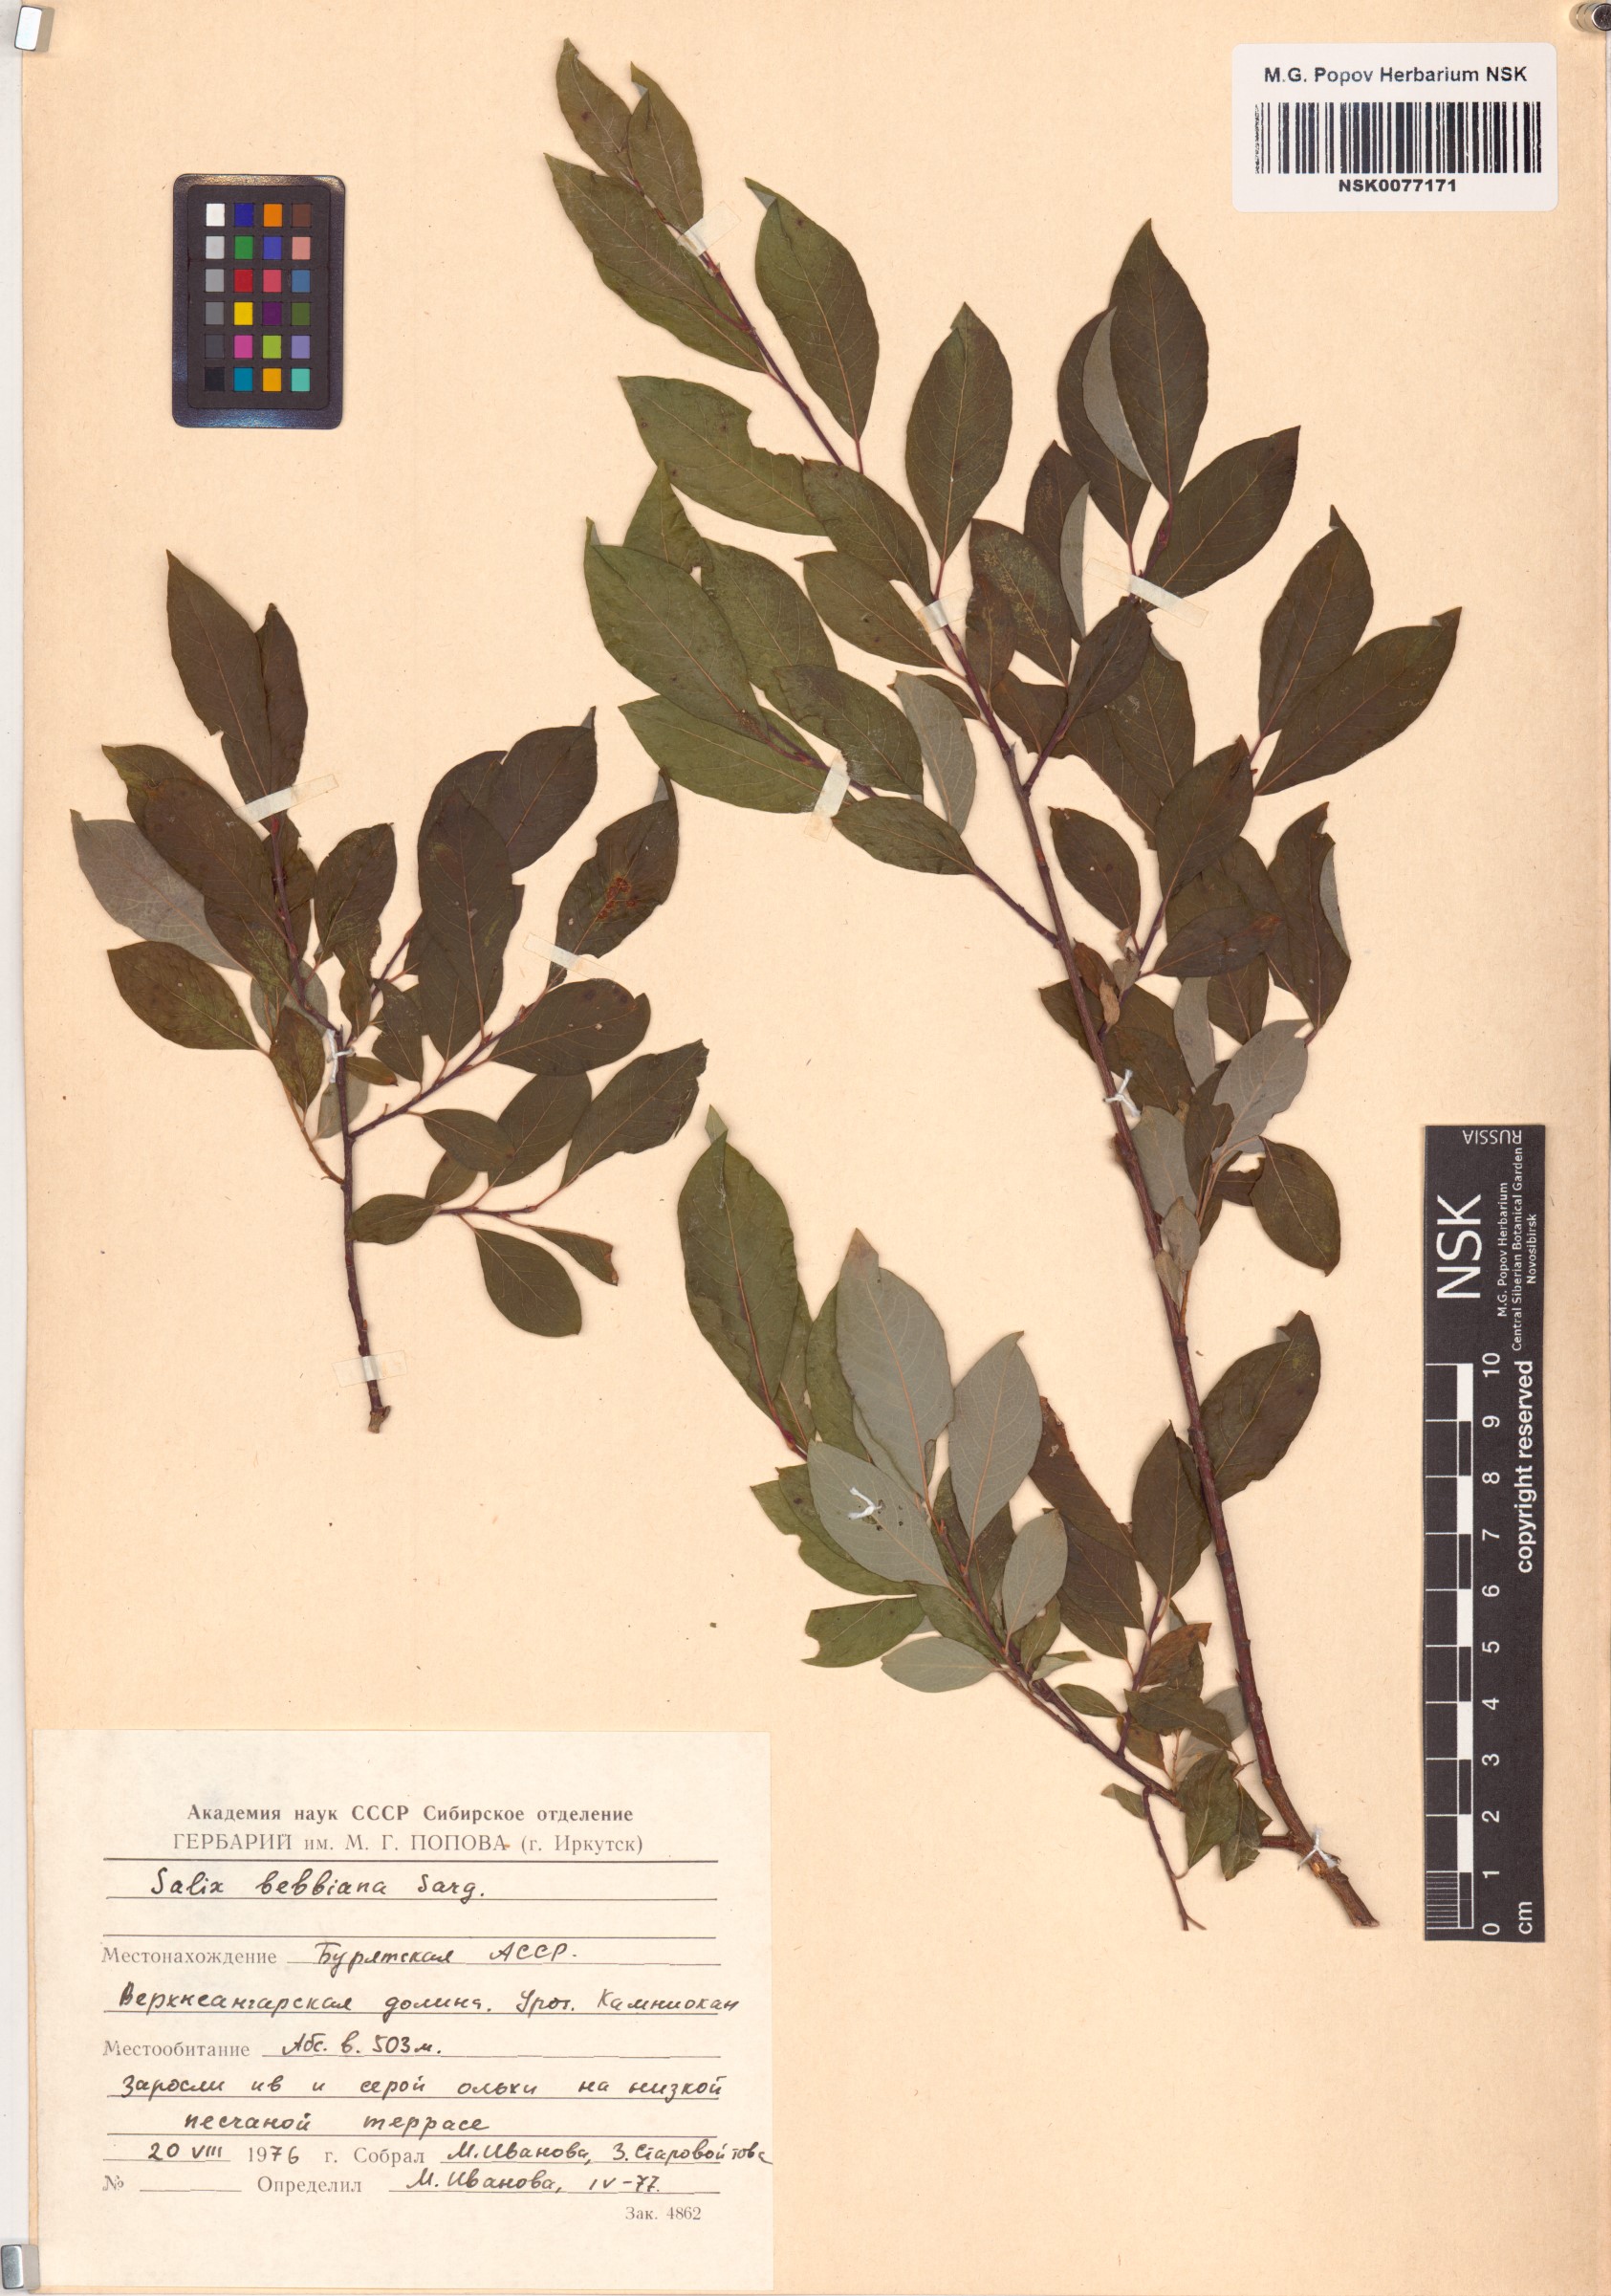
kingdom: Plantae
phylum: Tracheophyta
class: Magnoliopsida
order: Malpighiales
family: Salicaceae
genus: Salix
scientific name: Salix bebbiana
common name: Bebb's willow
